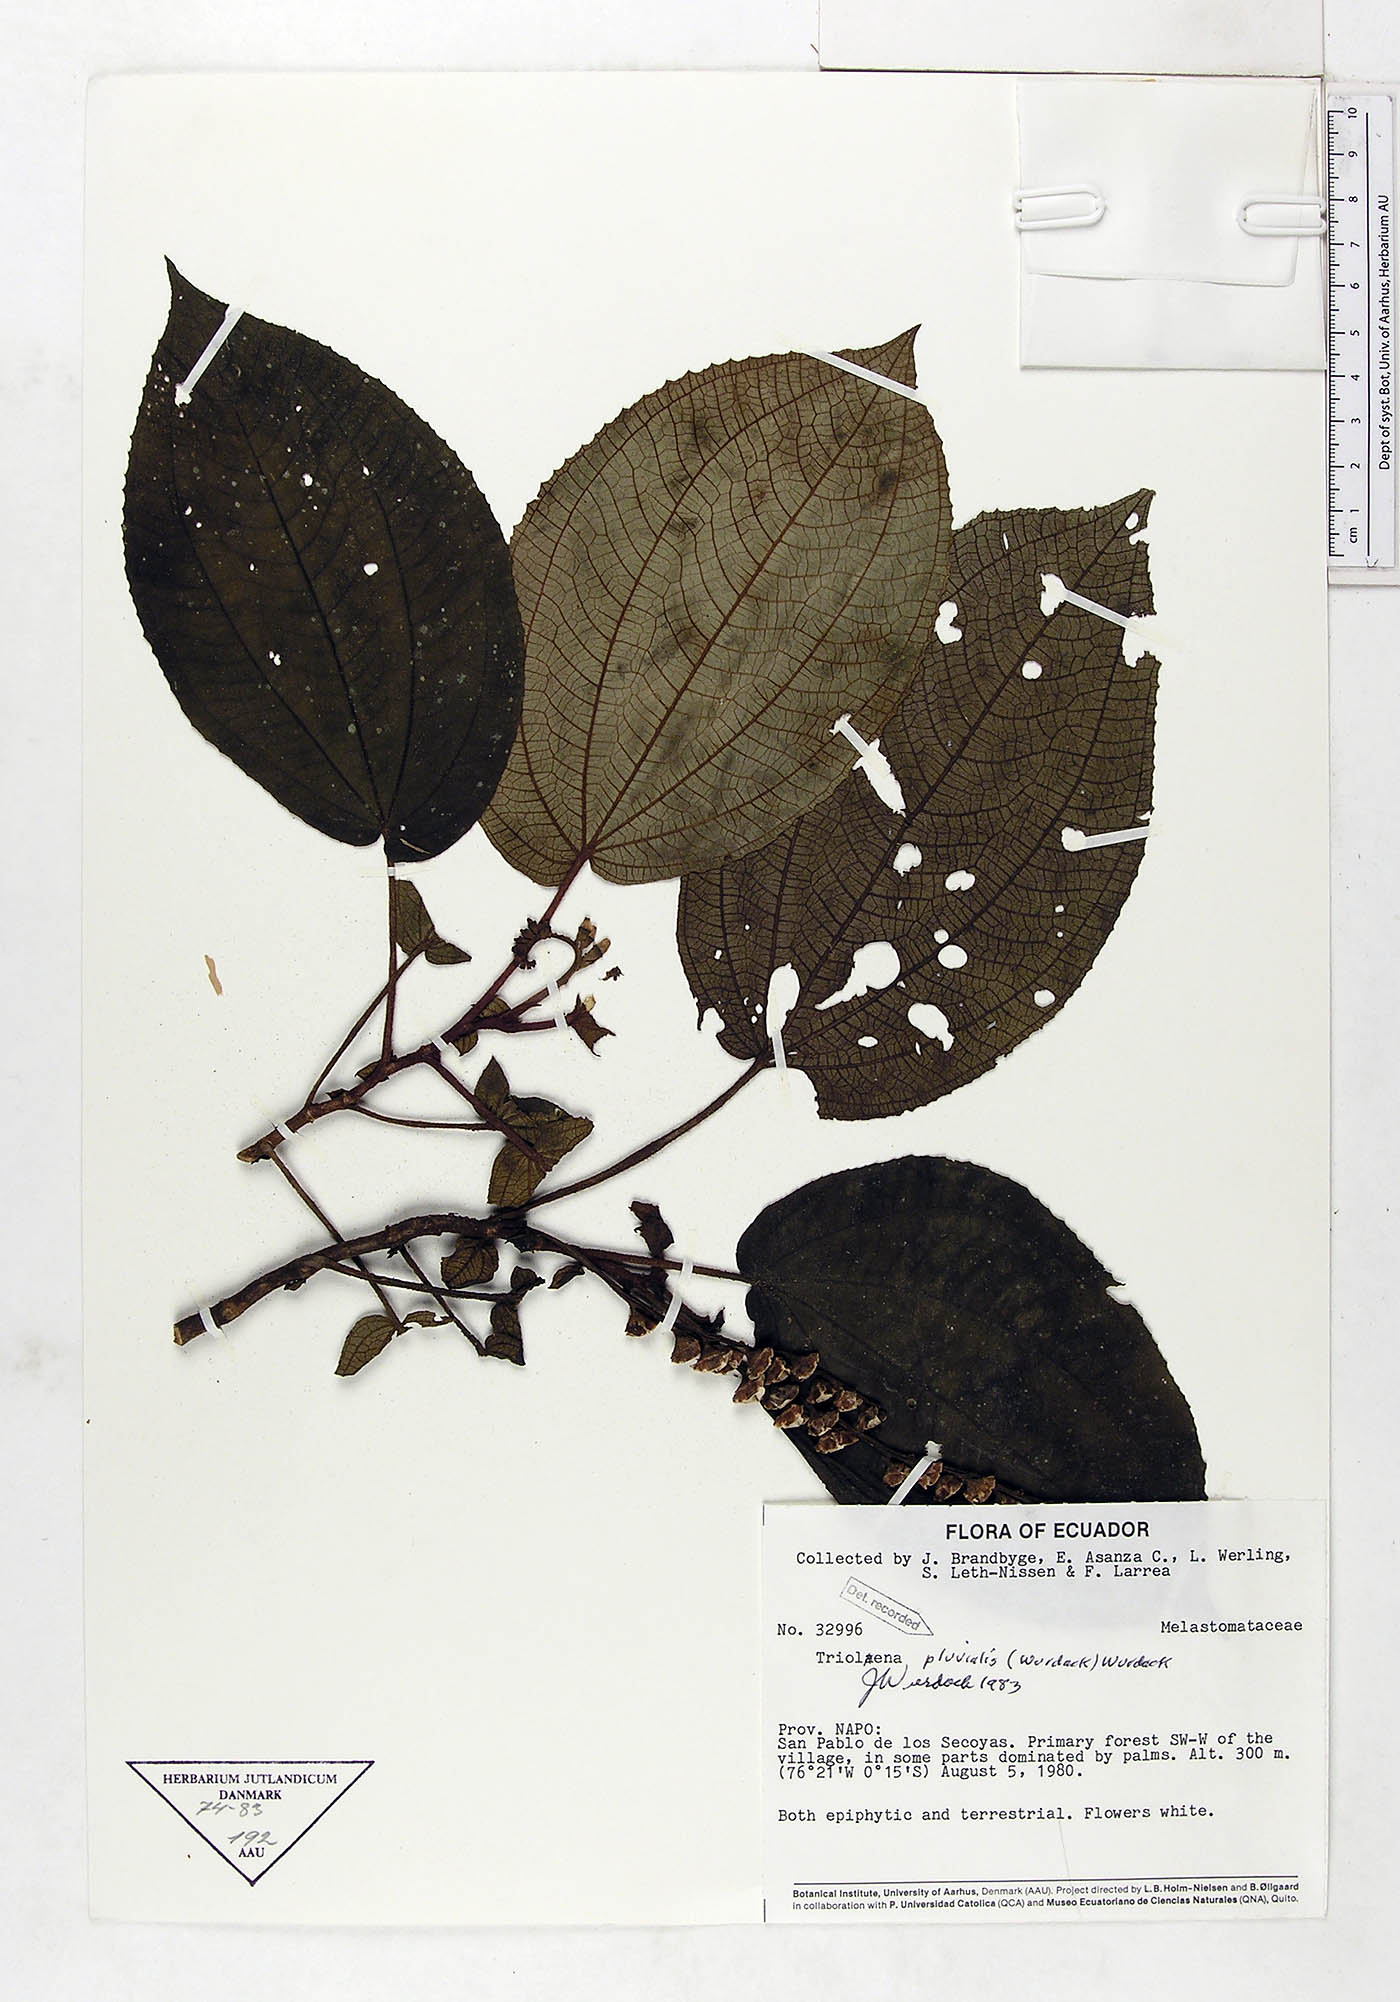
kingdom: Plantae
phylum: Tracheophyta
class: Magnoliopsida
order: Myrtales
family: Melastomataceae
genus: Triolena
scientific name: Triolena pluvialis
